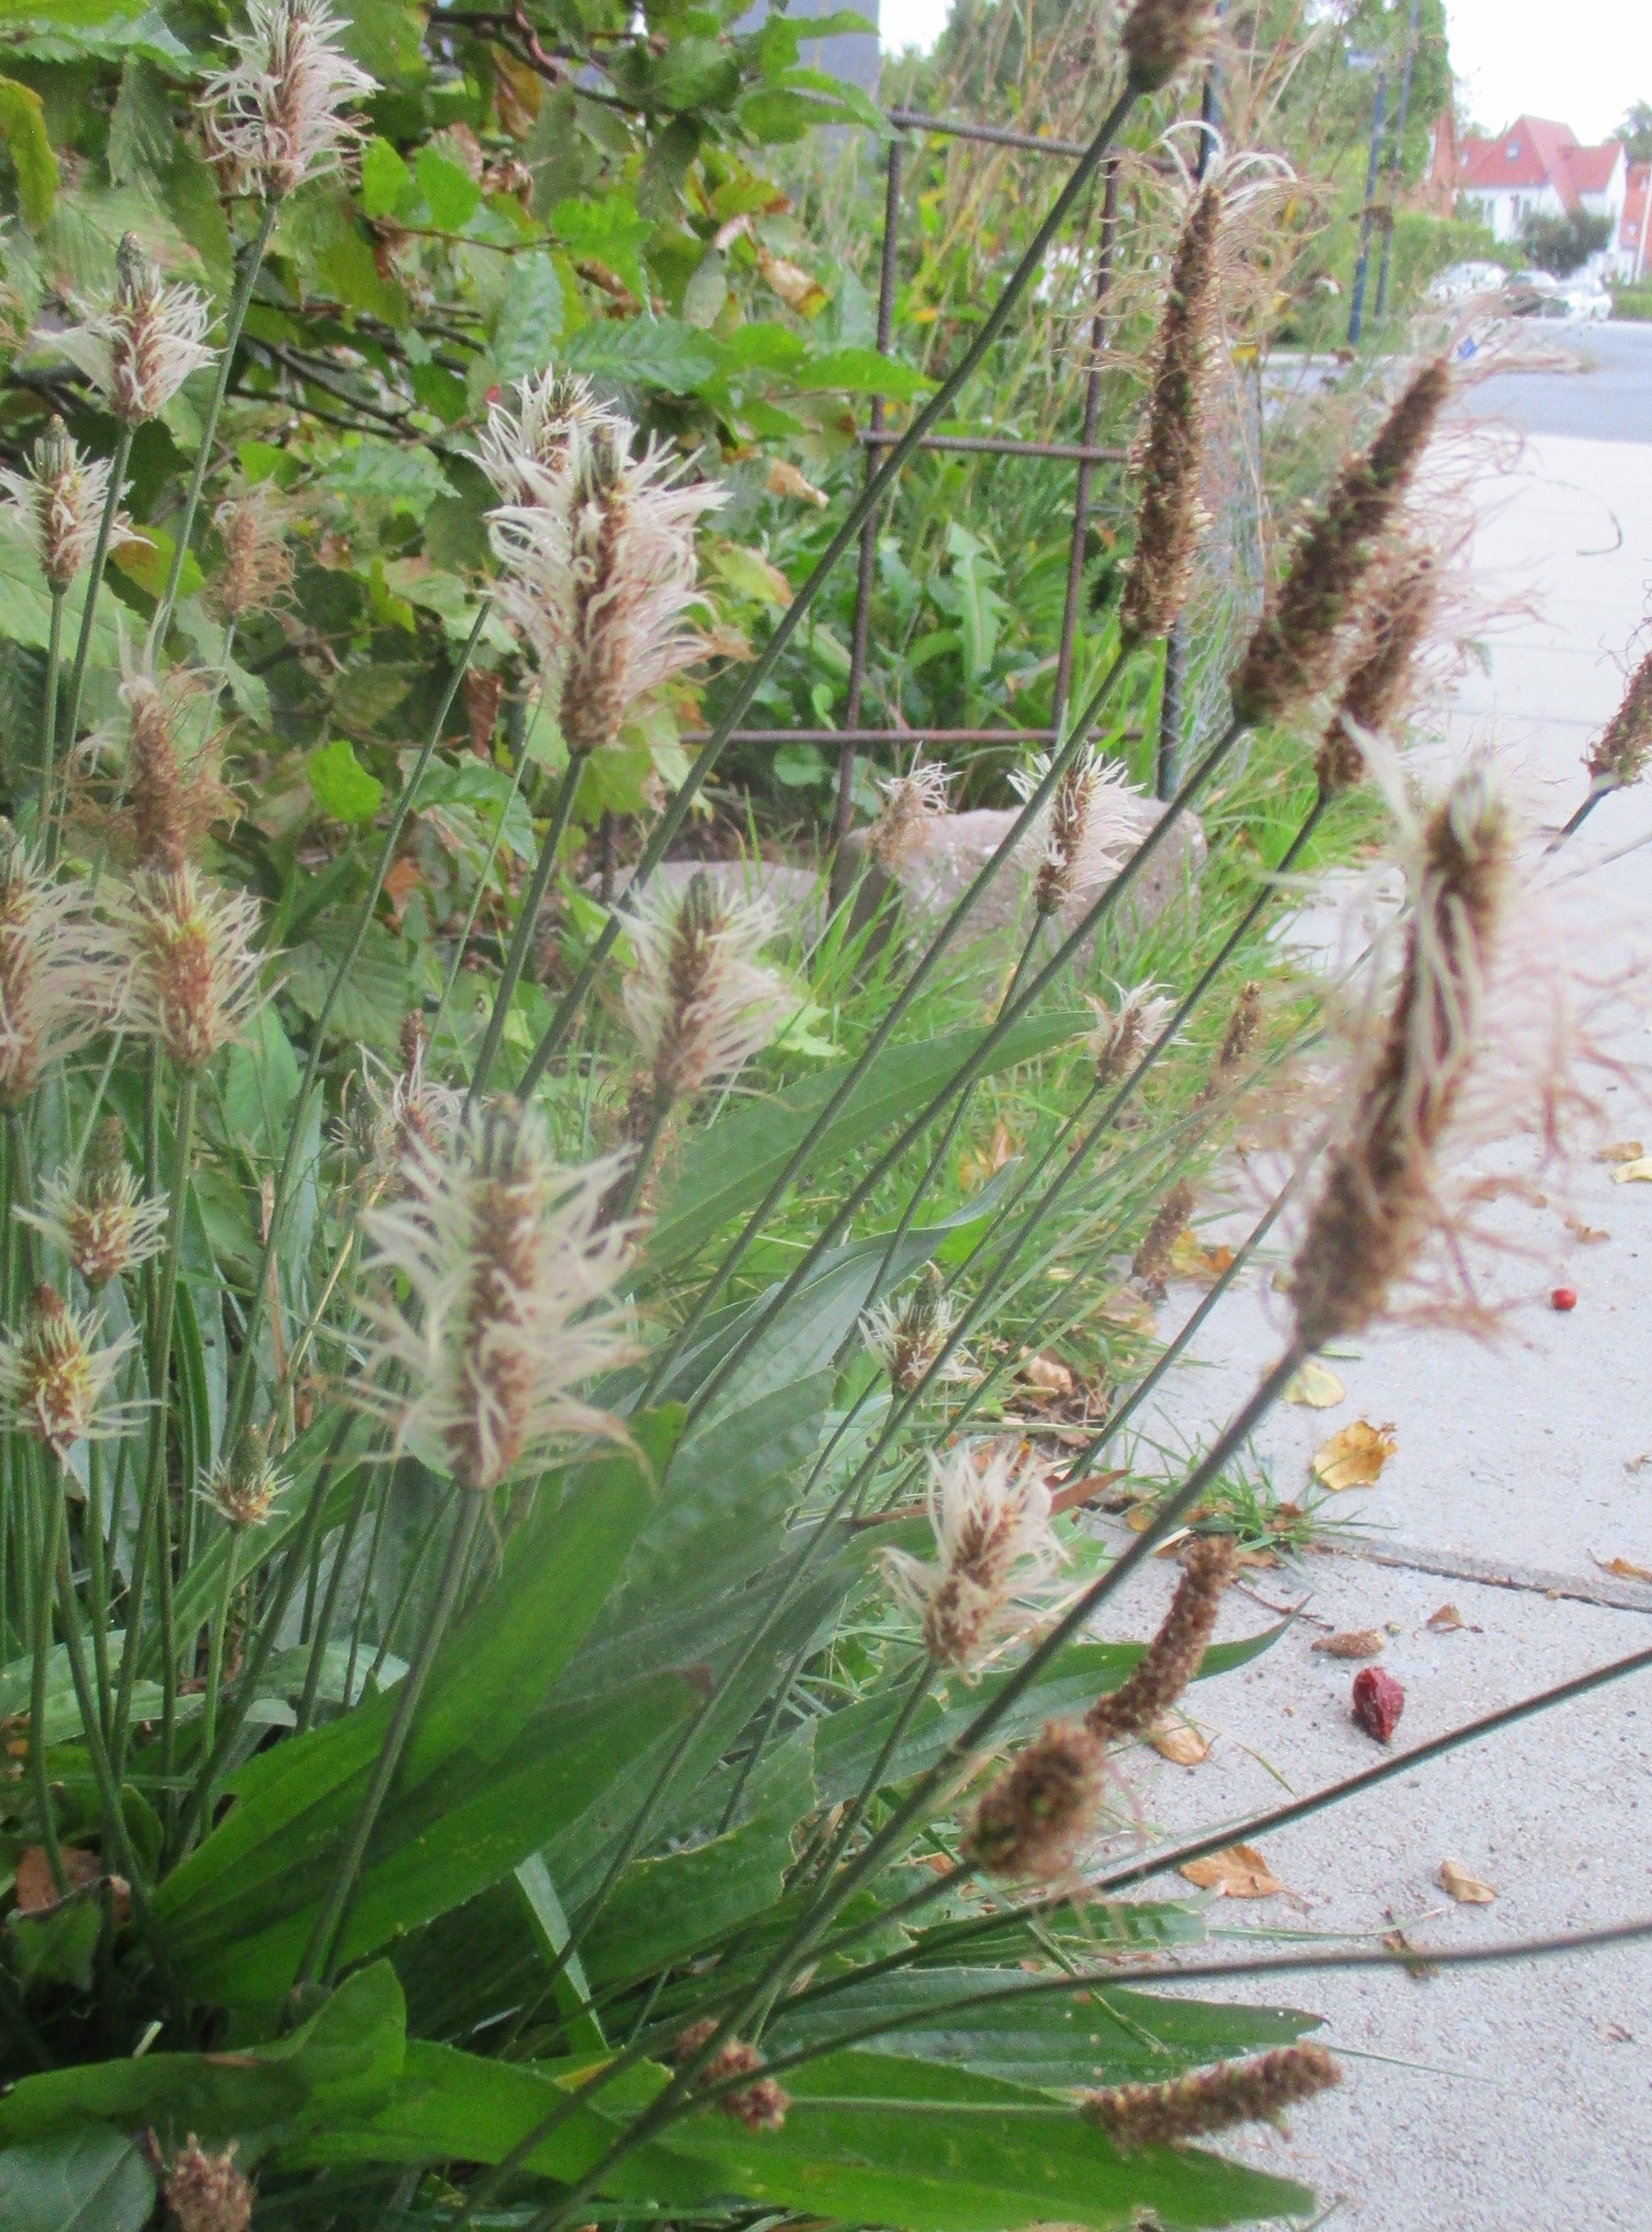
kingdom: Plantae
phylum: Tracheophyta
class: Magnoliopsida
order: Lamiales
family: Plantaginaceae
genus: Plantago
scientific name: Plantago lanceolata
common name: Lancet-vejbred
